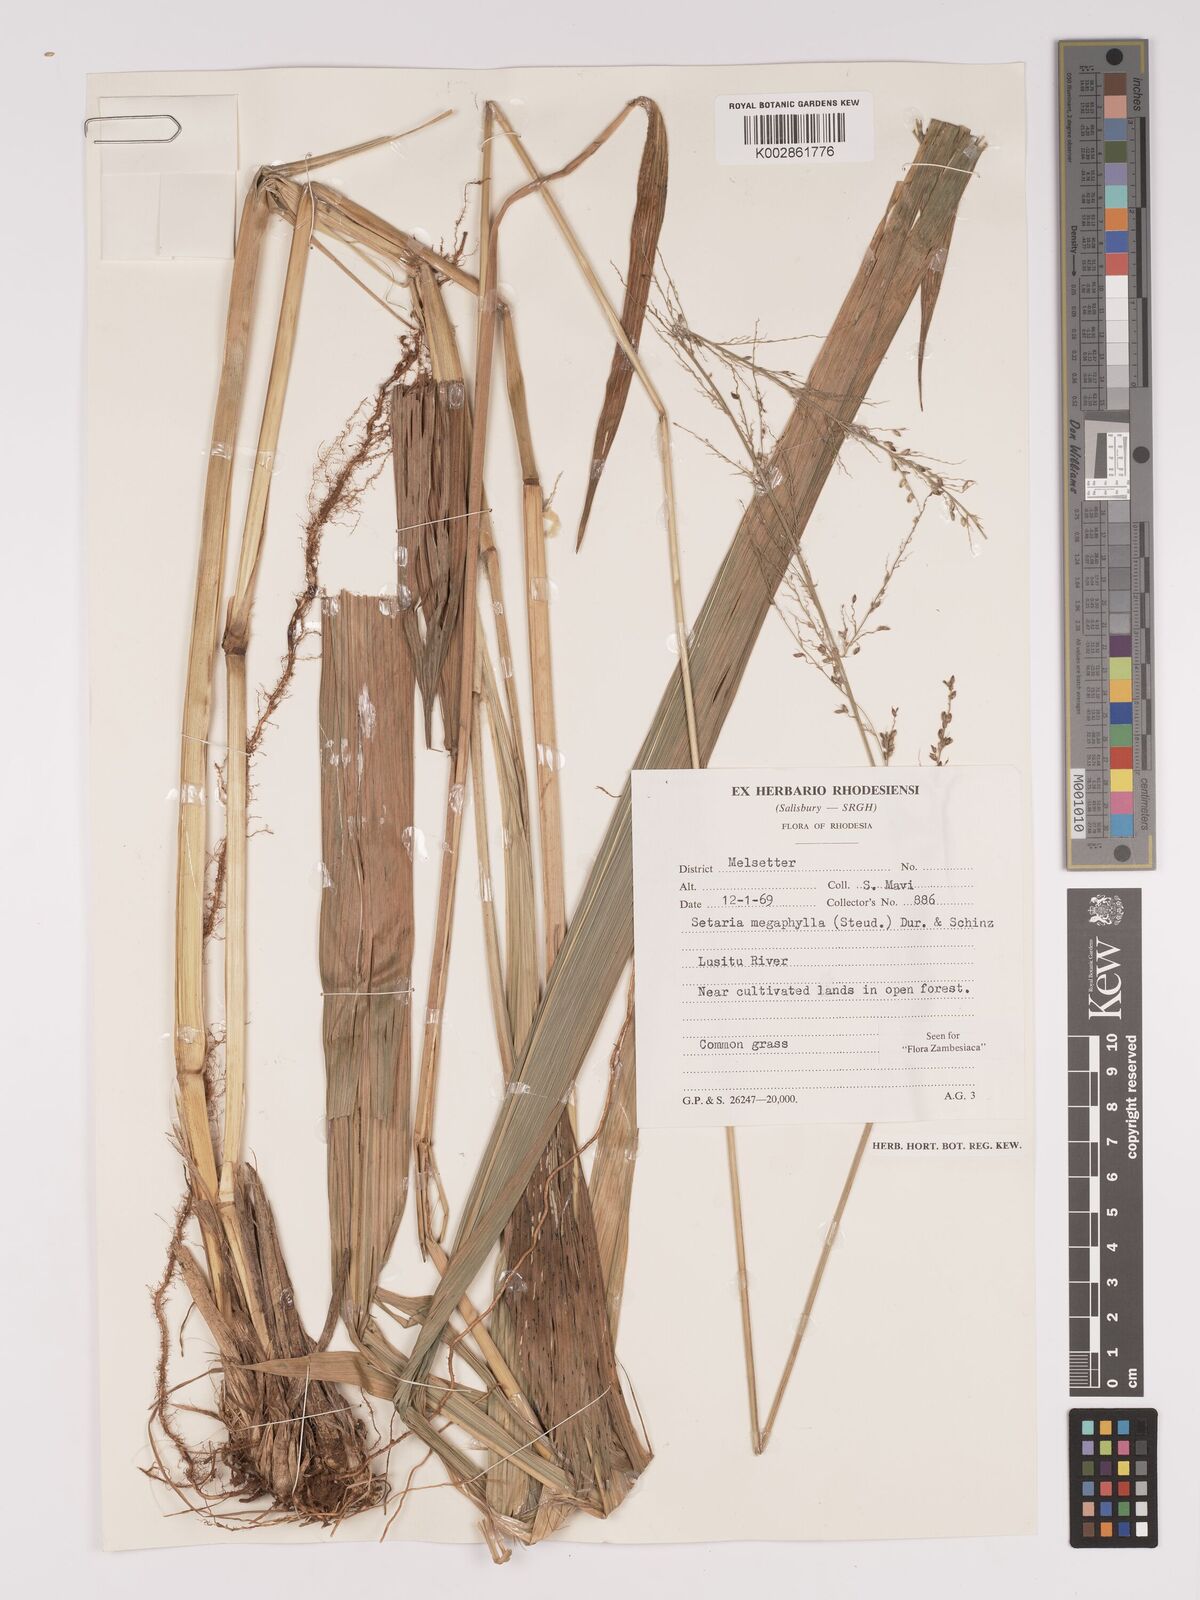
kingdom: Plantae
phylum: Tracheophyta
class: Liliopsida
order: Poales
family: Poaceae
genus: Setaria
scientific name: Setaria megaphylla
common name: Bigleaf bristlegrass
